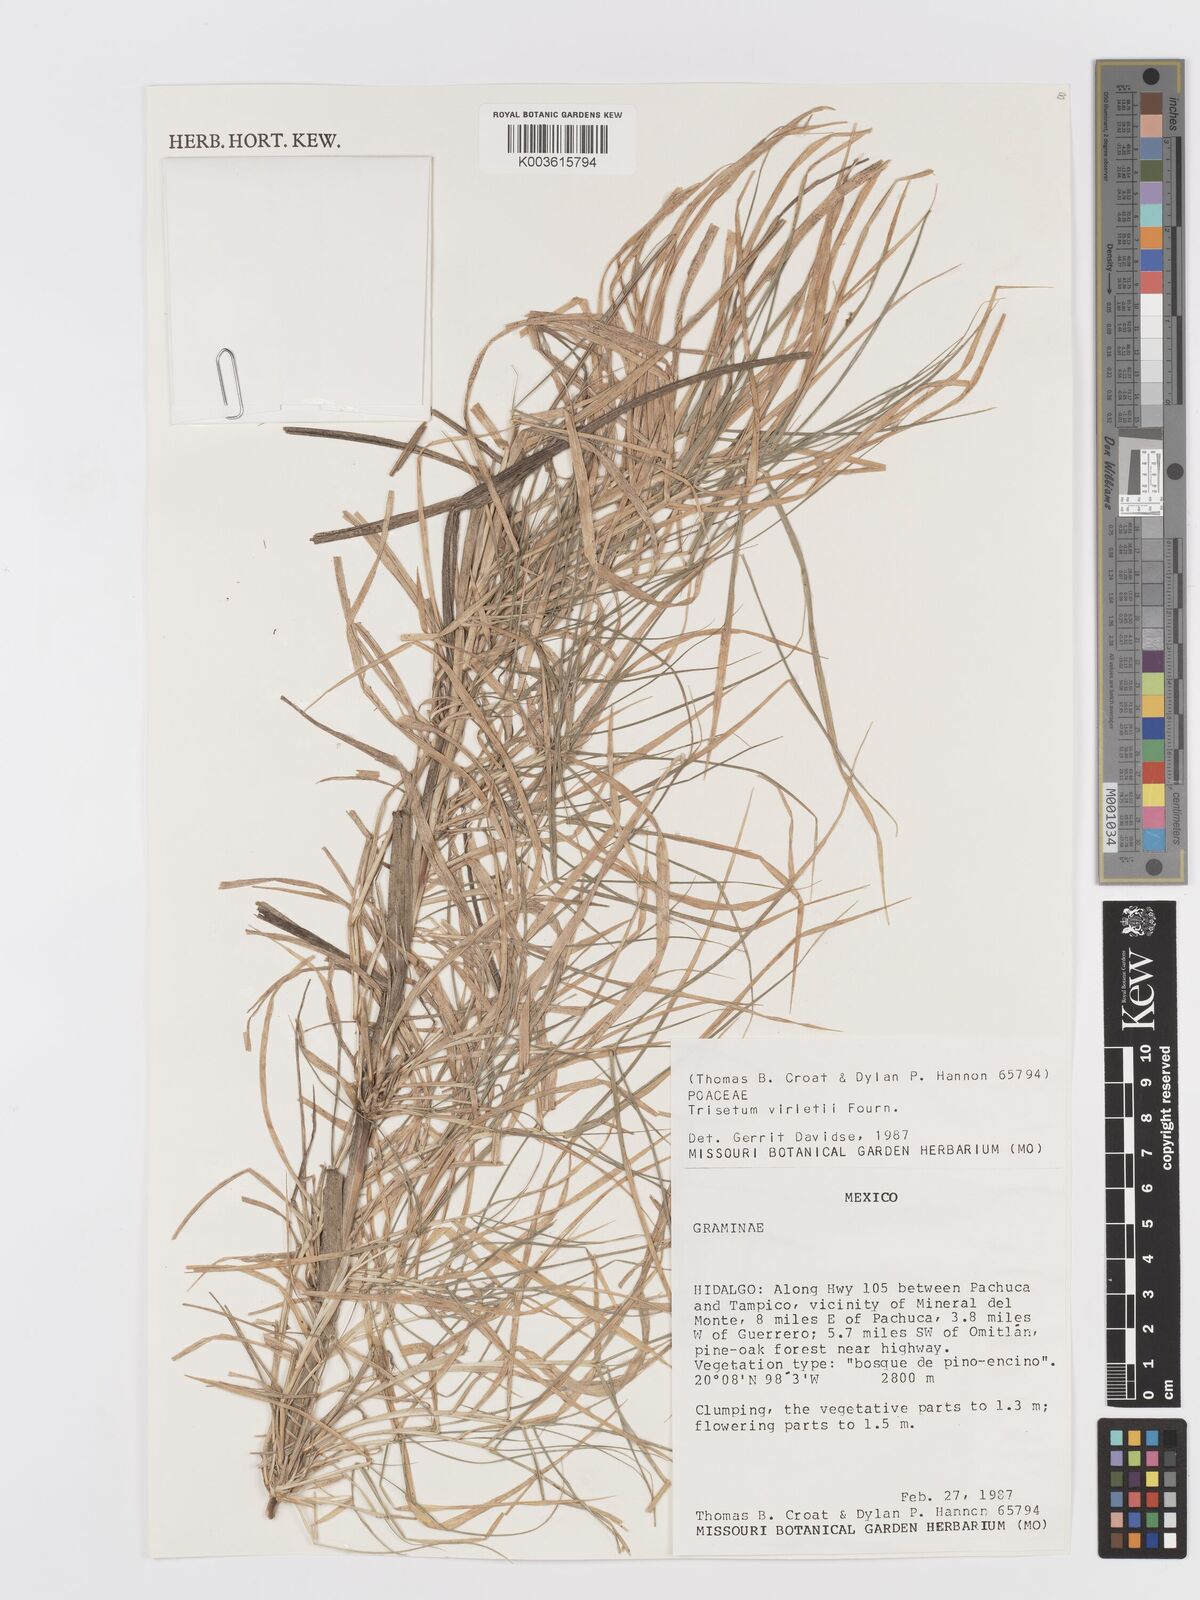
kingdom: Plantae
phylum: Tracheophyta
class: Liliopsida
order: Poales
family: Poaceae
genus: Peyritschia
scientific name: Peyritschia virletii
